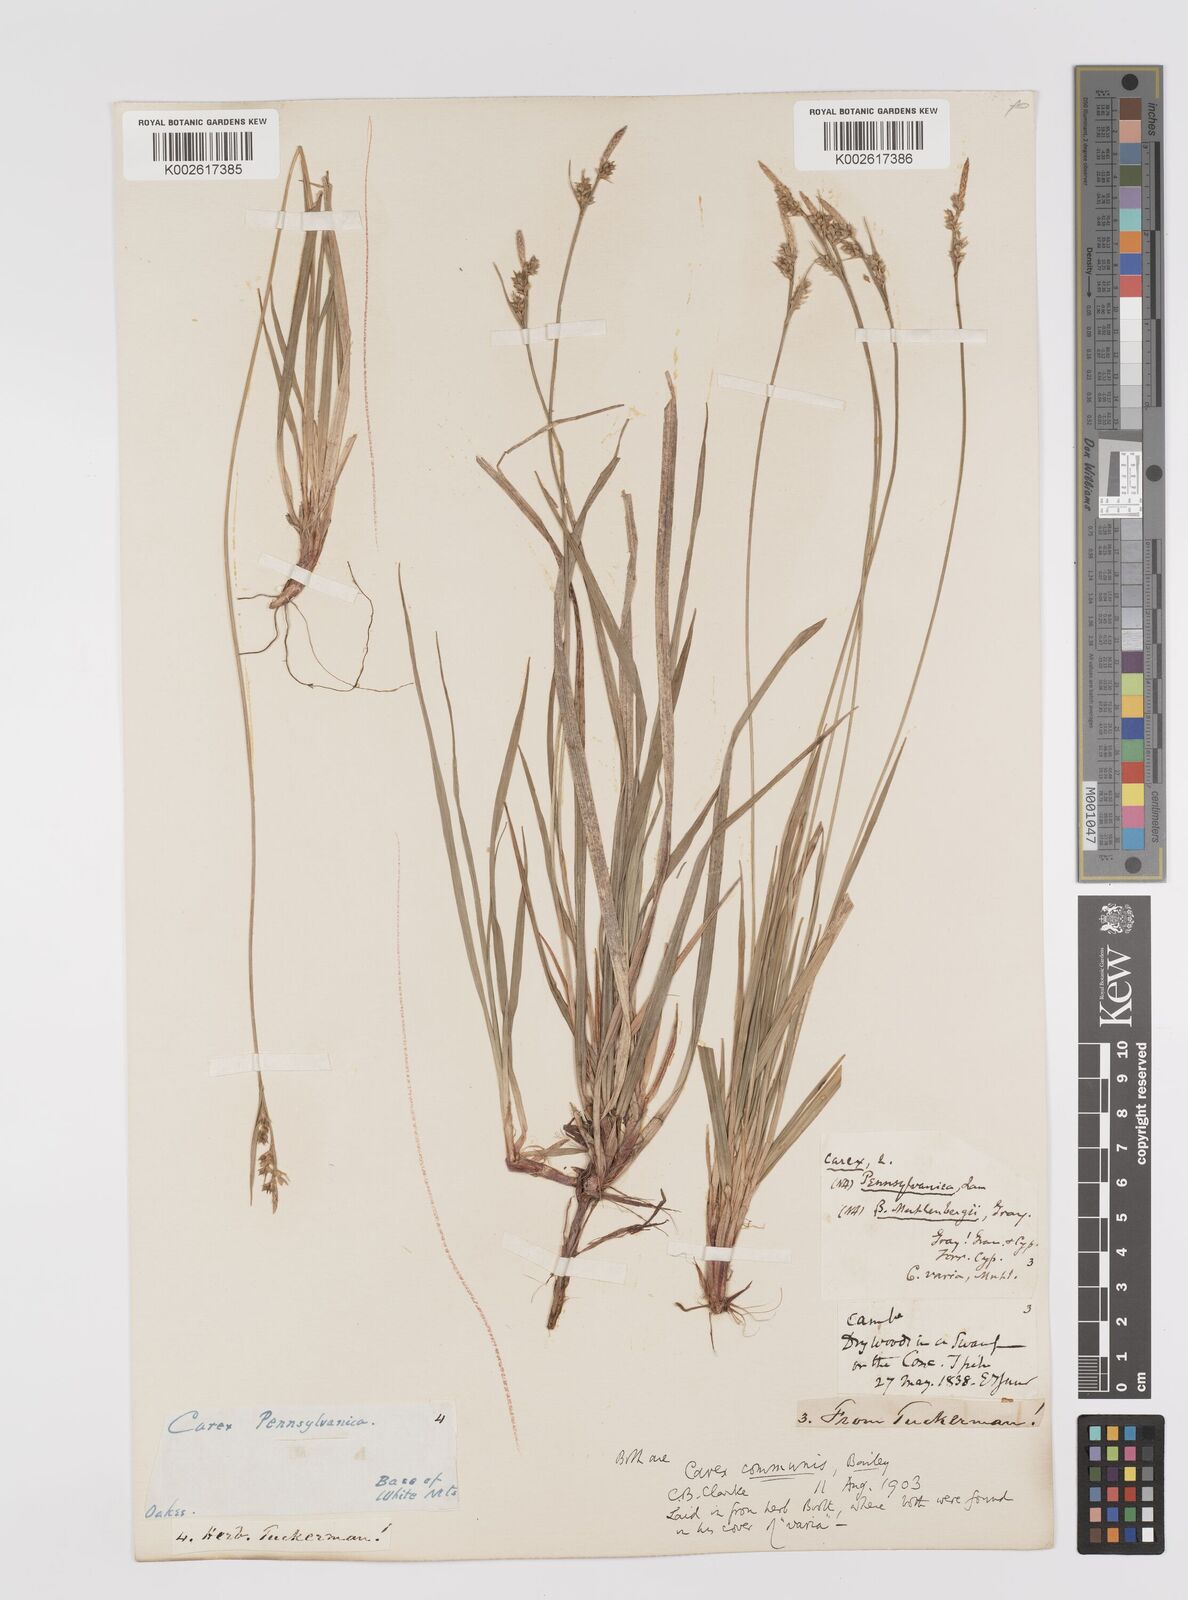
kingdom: Plantae
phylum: Tracheophyta
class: Liliopsida
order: Poales
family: Cyperaceae
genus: Carex
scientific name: Carex communis
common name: Colonial oak sedge
